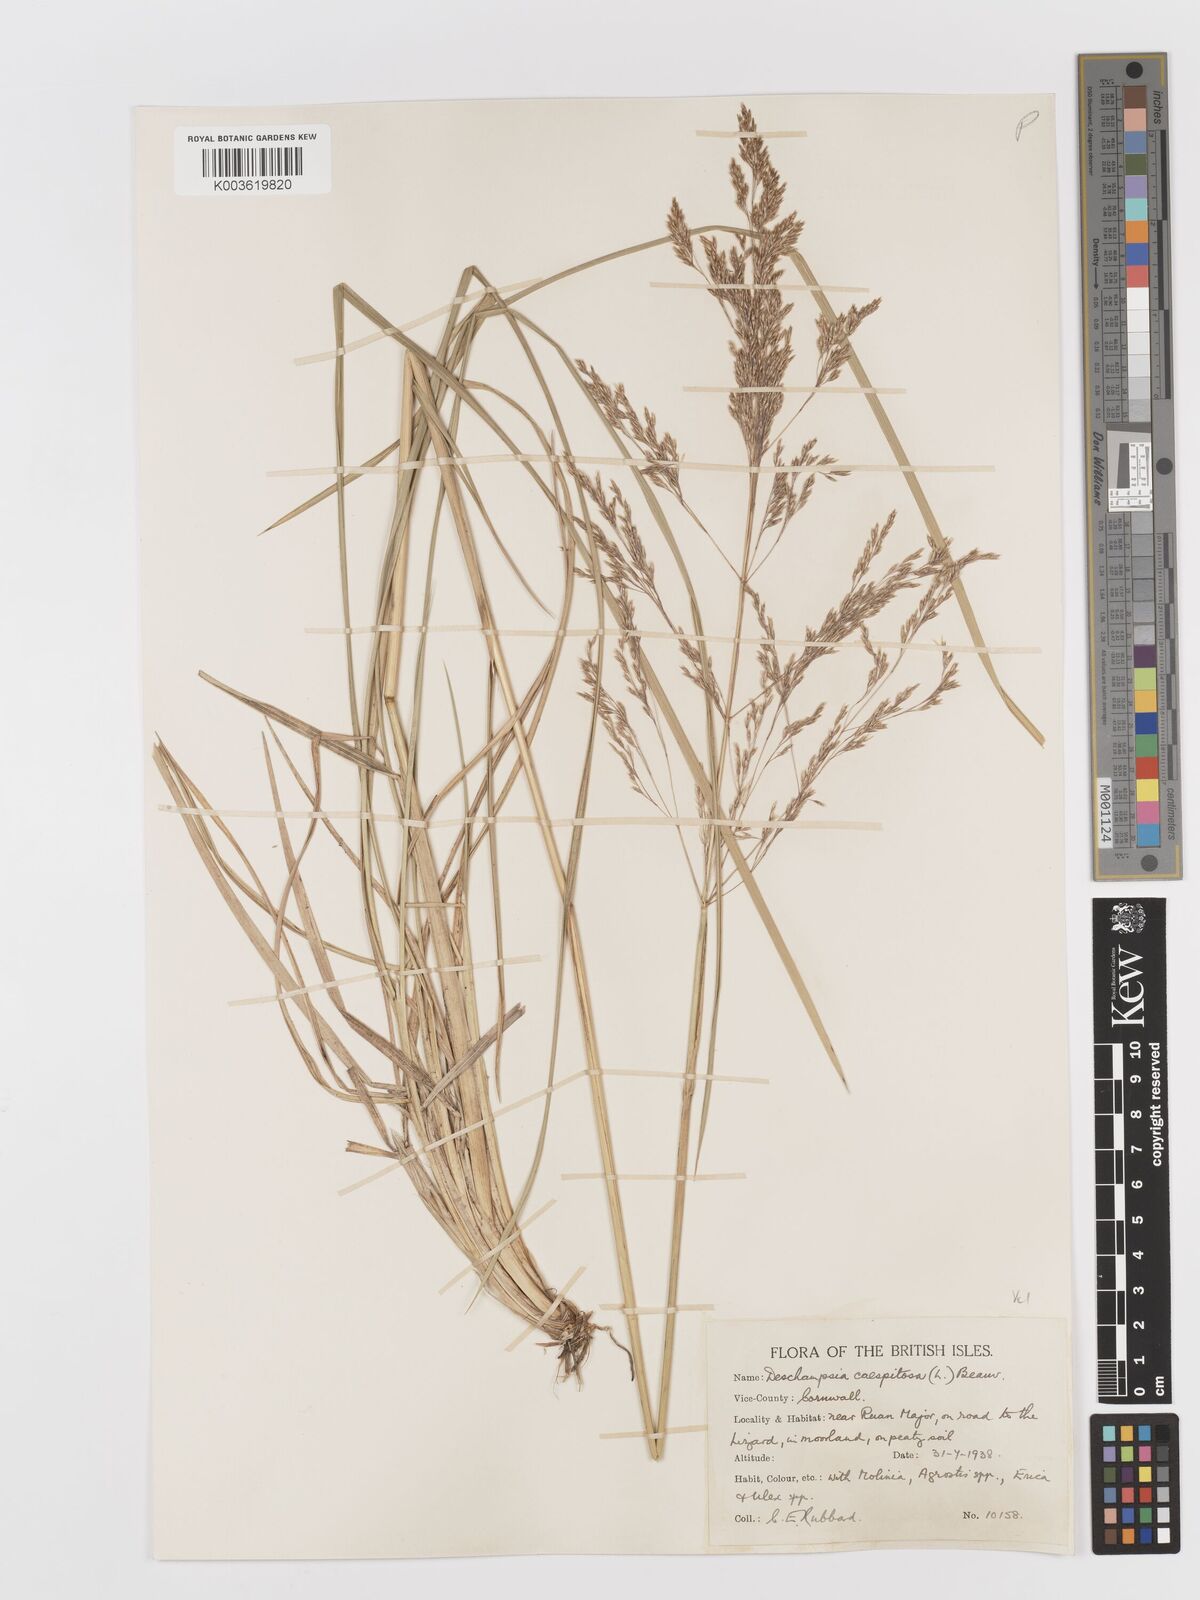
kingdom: Plantae
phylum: Tracheophyta
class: Liliopsida
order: Poales
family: Poaceae
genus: Deschampsia
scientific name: Deschampsia cespitosa
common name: Tufted hair-grass
